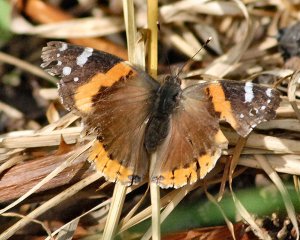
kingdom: Animalia
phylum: Arthropoda
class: Insecta
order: Lepidoptera
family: Nymphalidae
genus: Vanessa
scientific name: Vanessa atalanta
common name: Red Admiral
